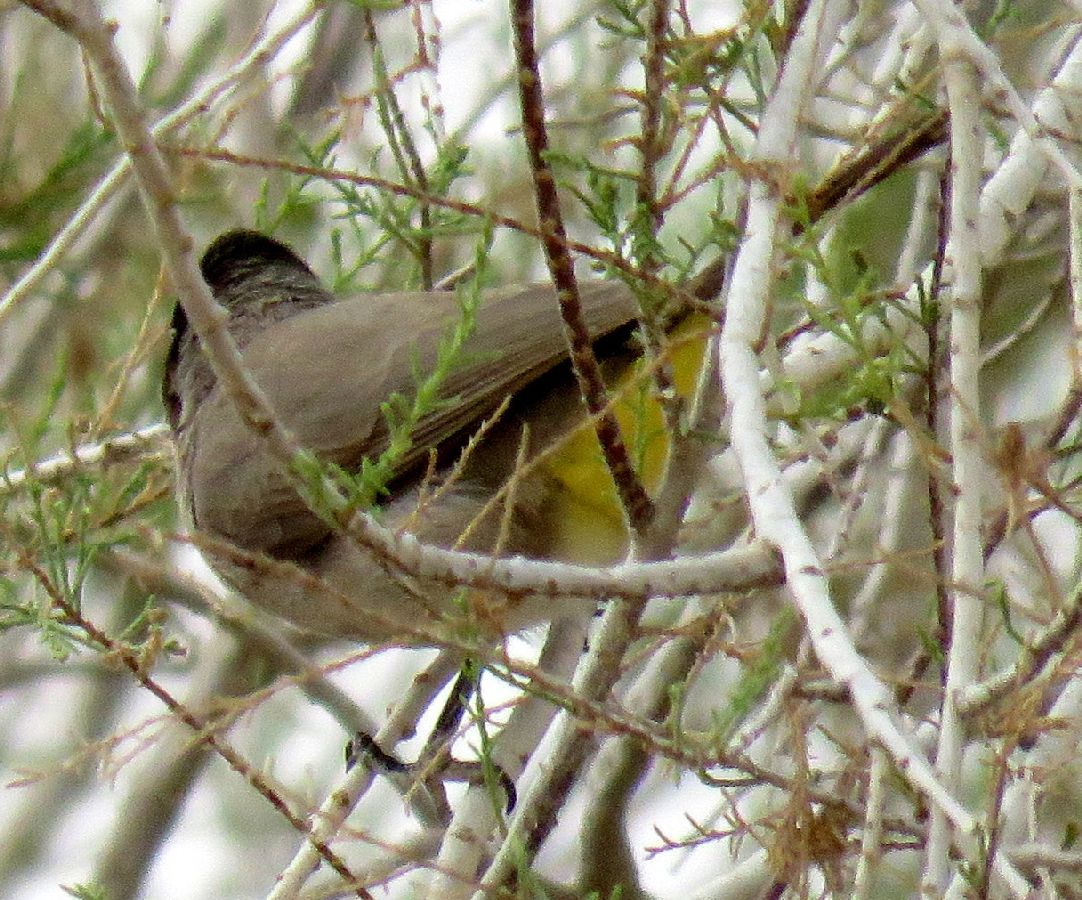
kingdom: Animalia
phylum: Chordata
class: Aves
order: Passeriformes
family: Pycnonotidae
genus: Pycnonotus
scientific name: Pycnonotus xanthopygos
